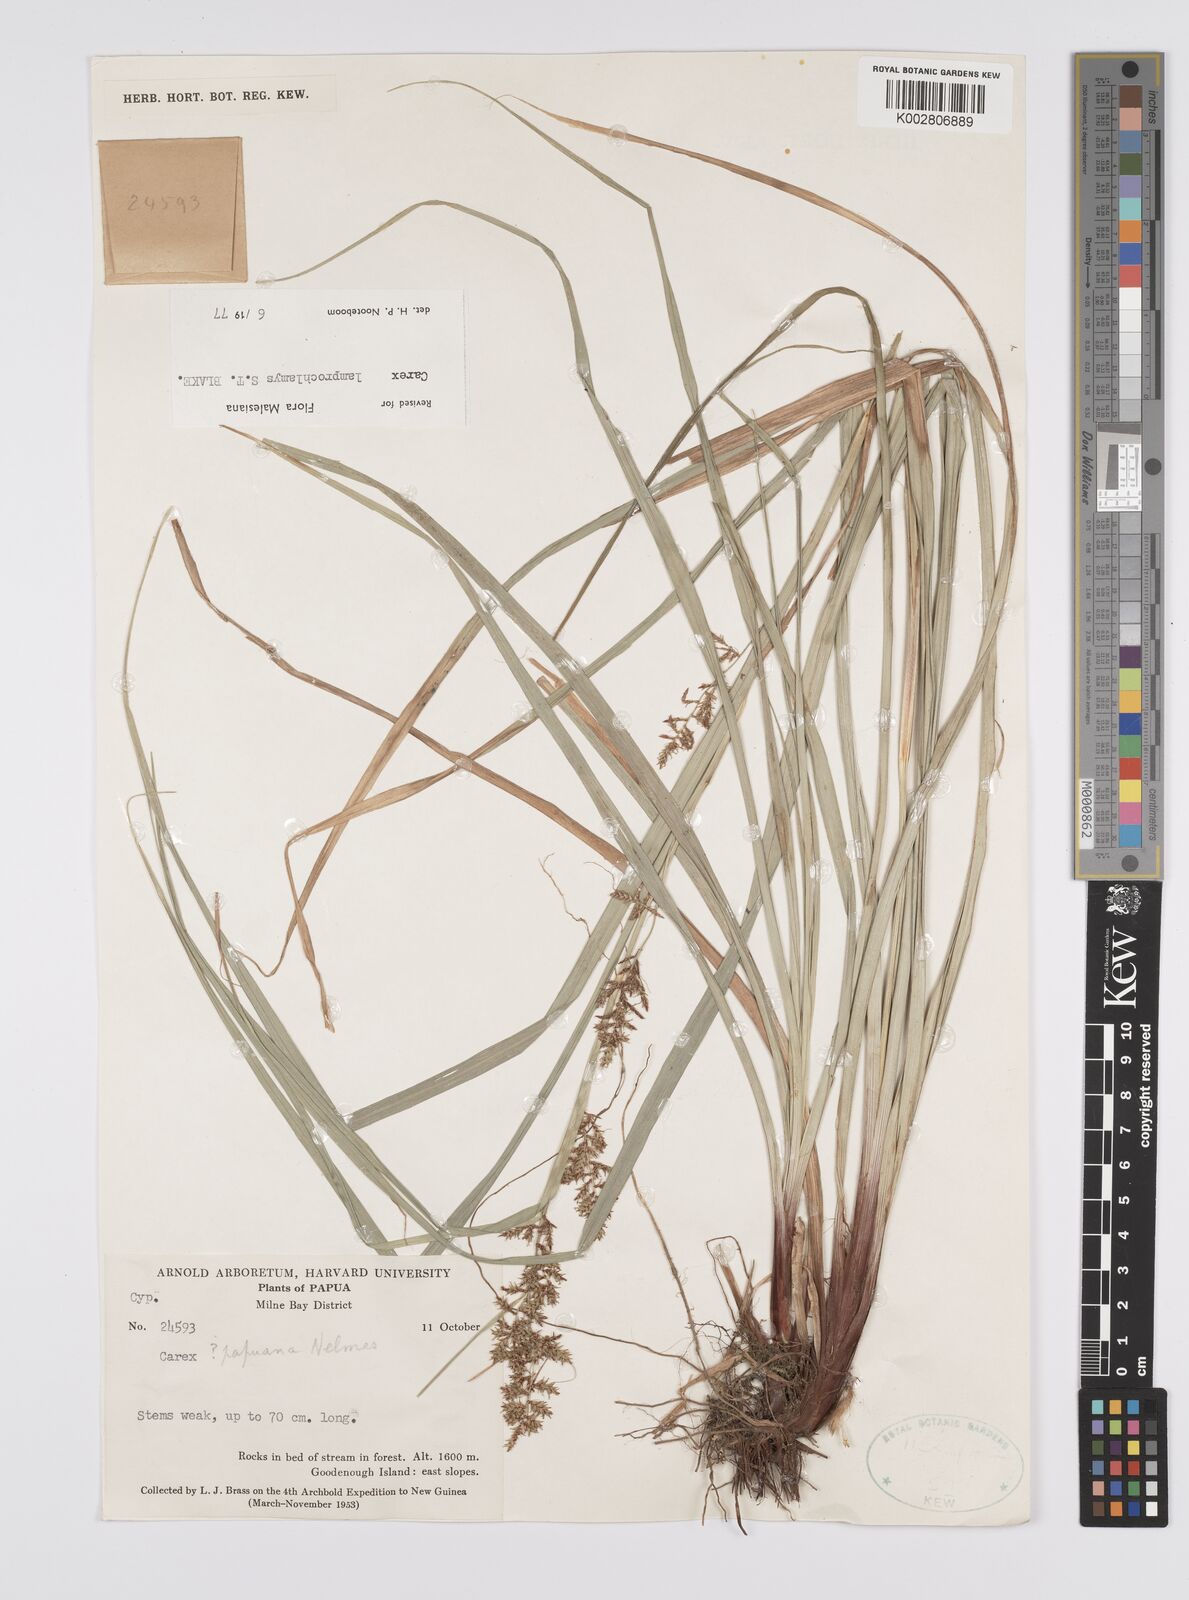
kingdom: Plantae
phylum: Tracheophyta
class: Liliopsida
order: Poales
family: Cyperaceae
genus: Carex
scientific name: Carex lamprochlamys
